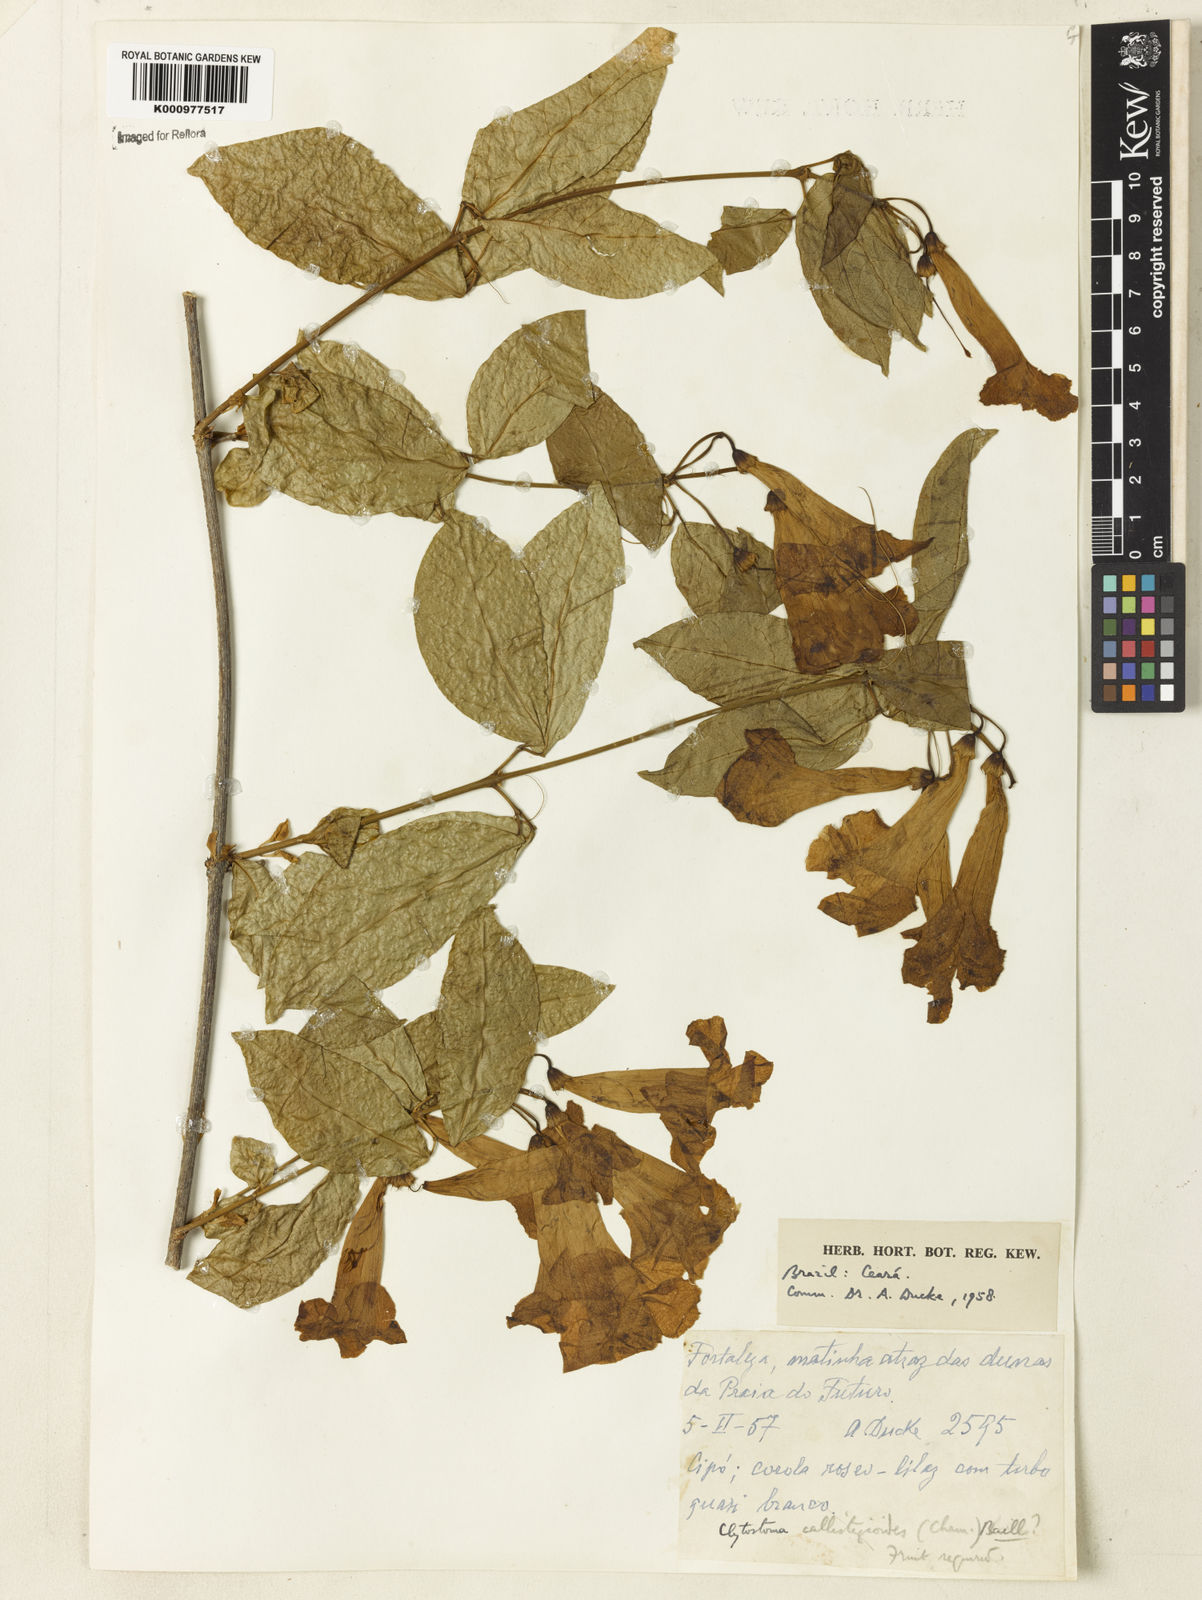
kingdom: Plantae
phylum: Tracheophyta
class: Magnoliopsida
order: Lamiales
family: Bignoniaceae
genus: Bignonia
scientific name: Bignonia binata
